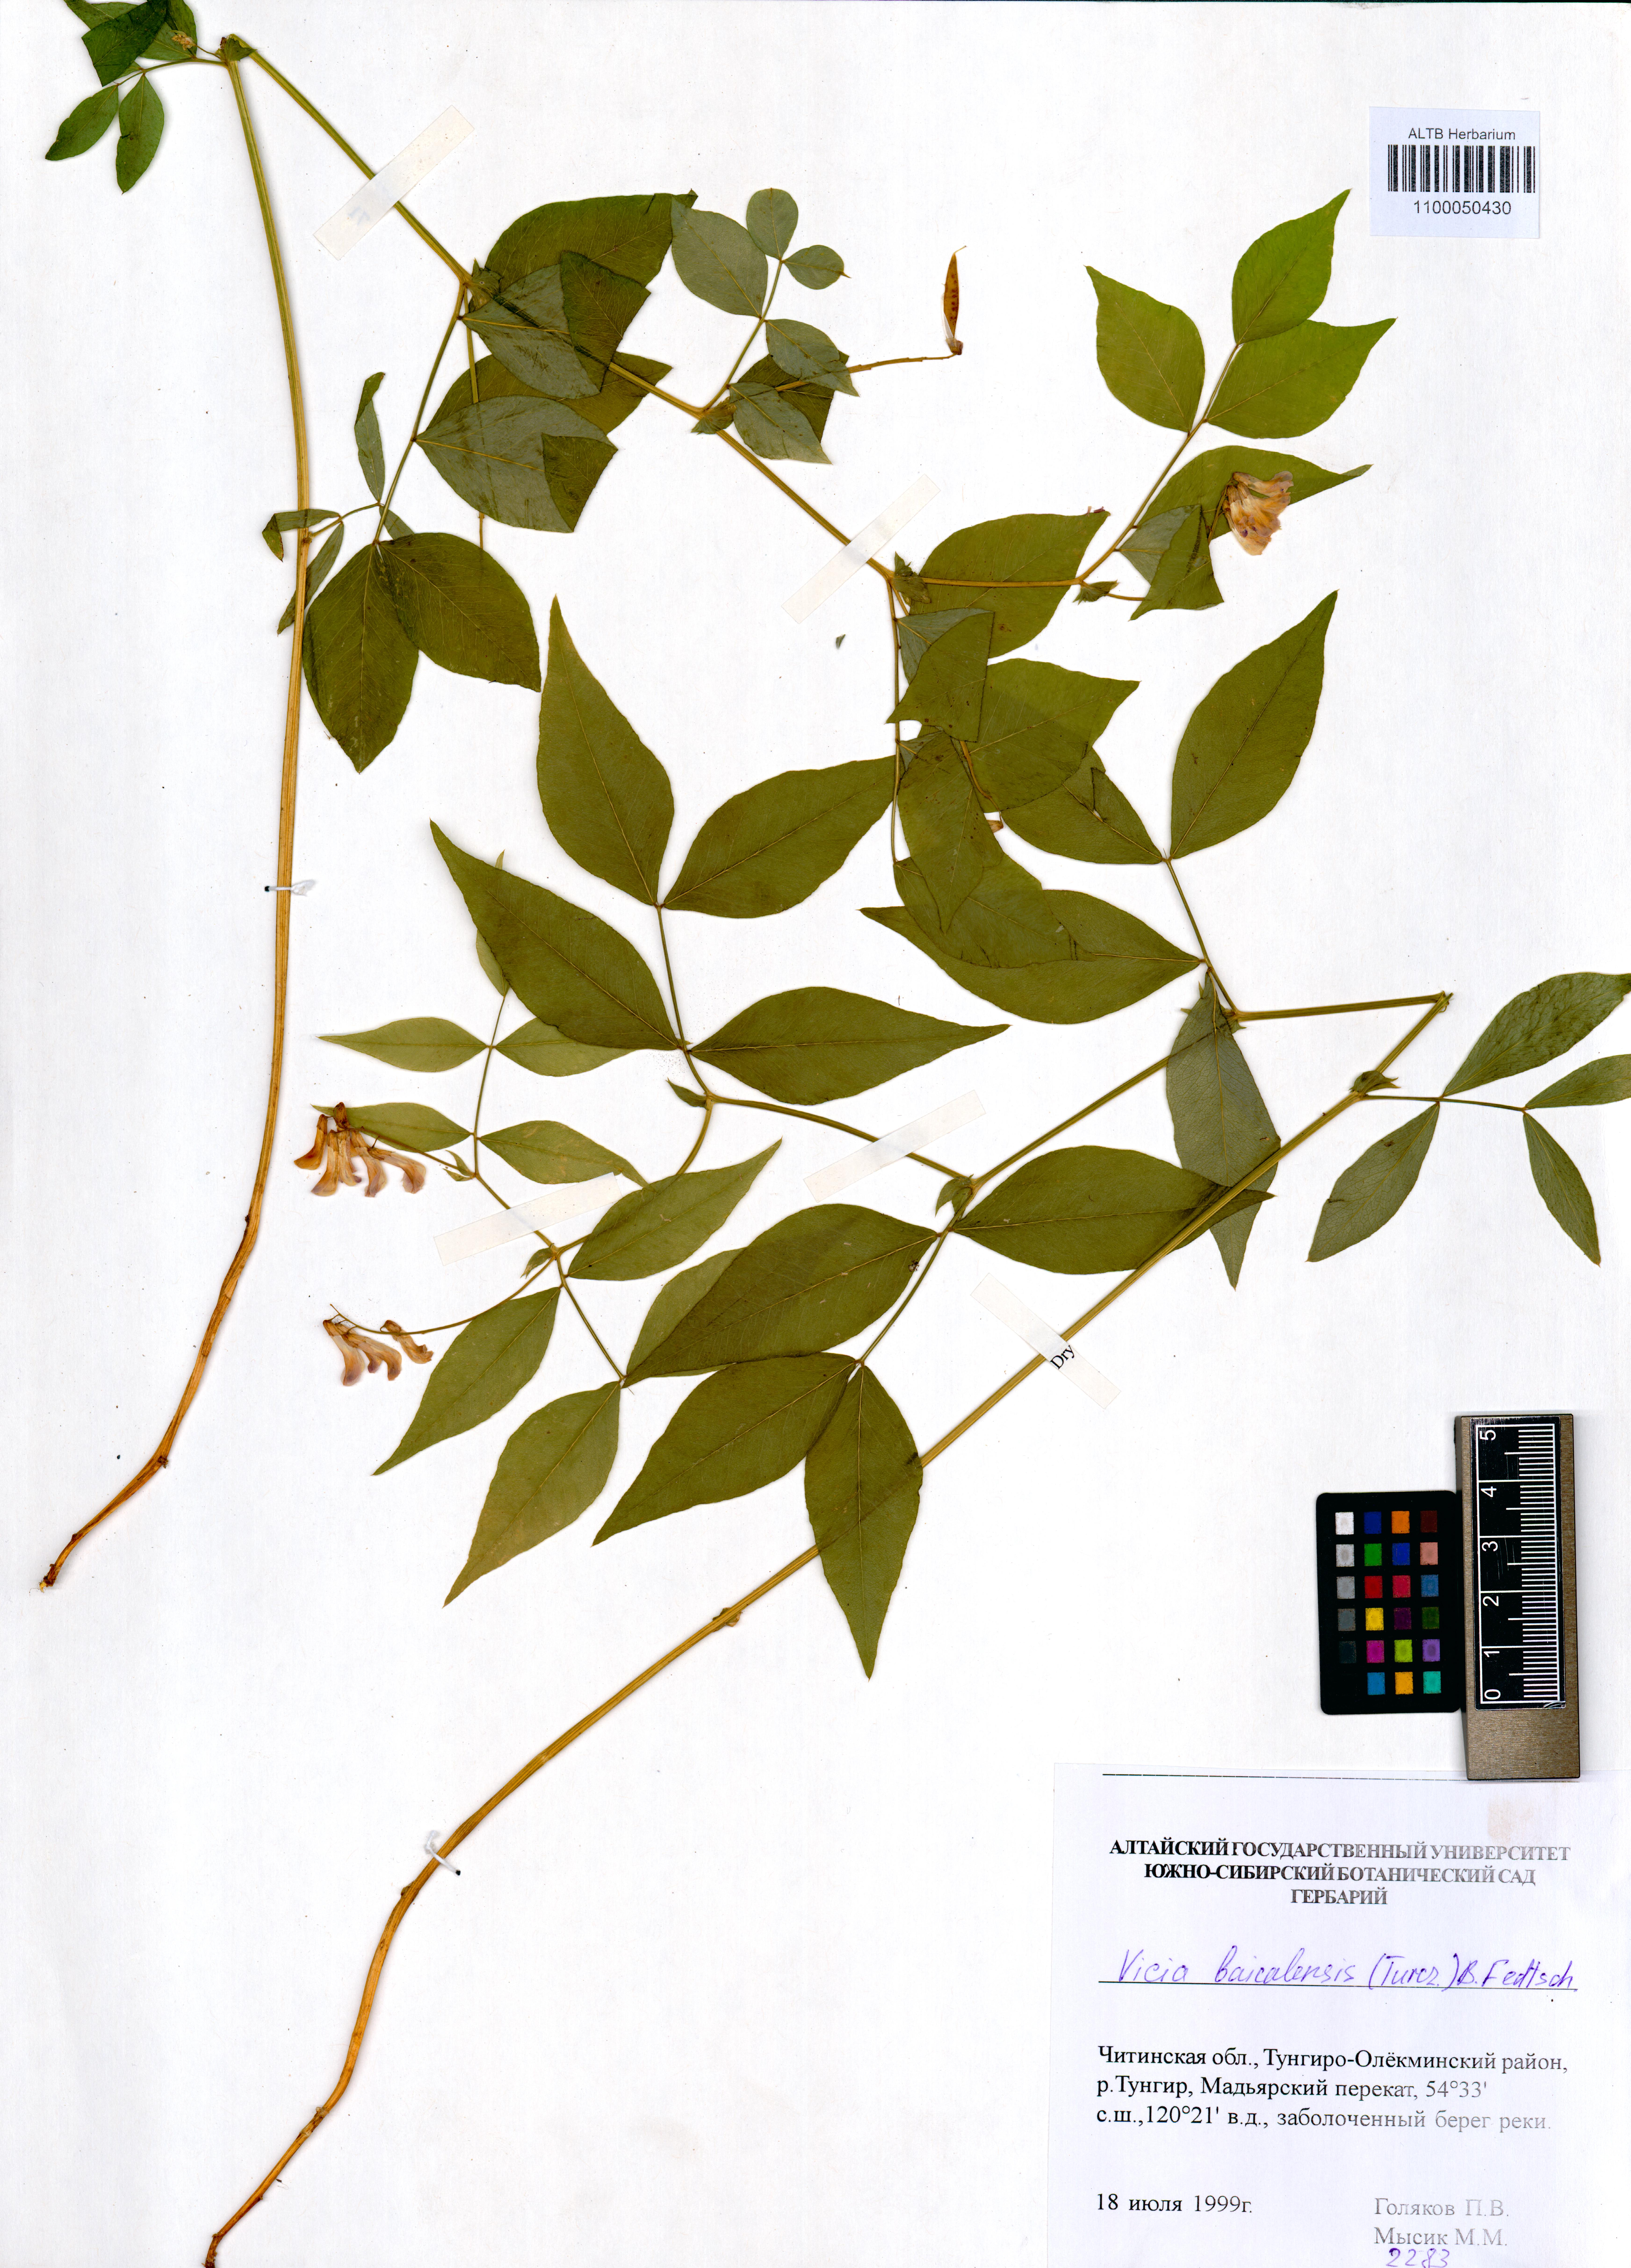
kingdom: Plantae
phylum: Tracheophyta
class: Magnoliopsida
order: Fabales
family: Fabaceae
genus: Vicia
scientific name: Vicia ramuliflora
